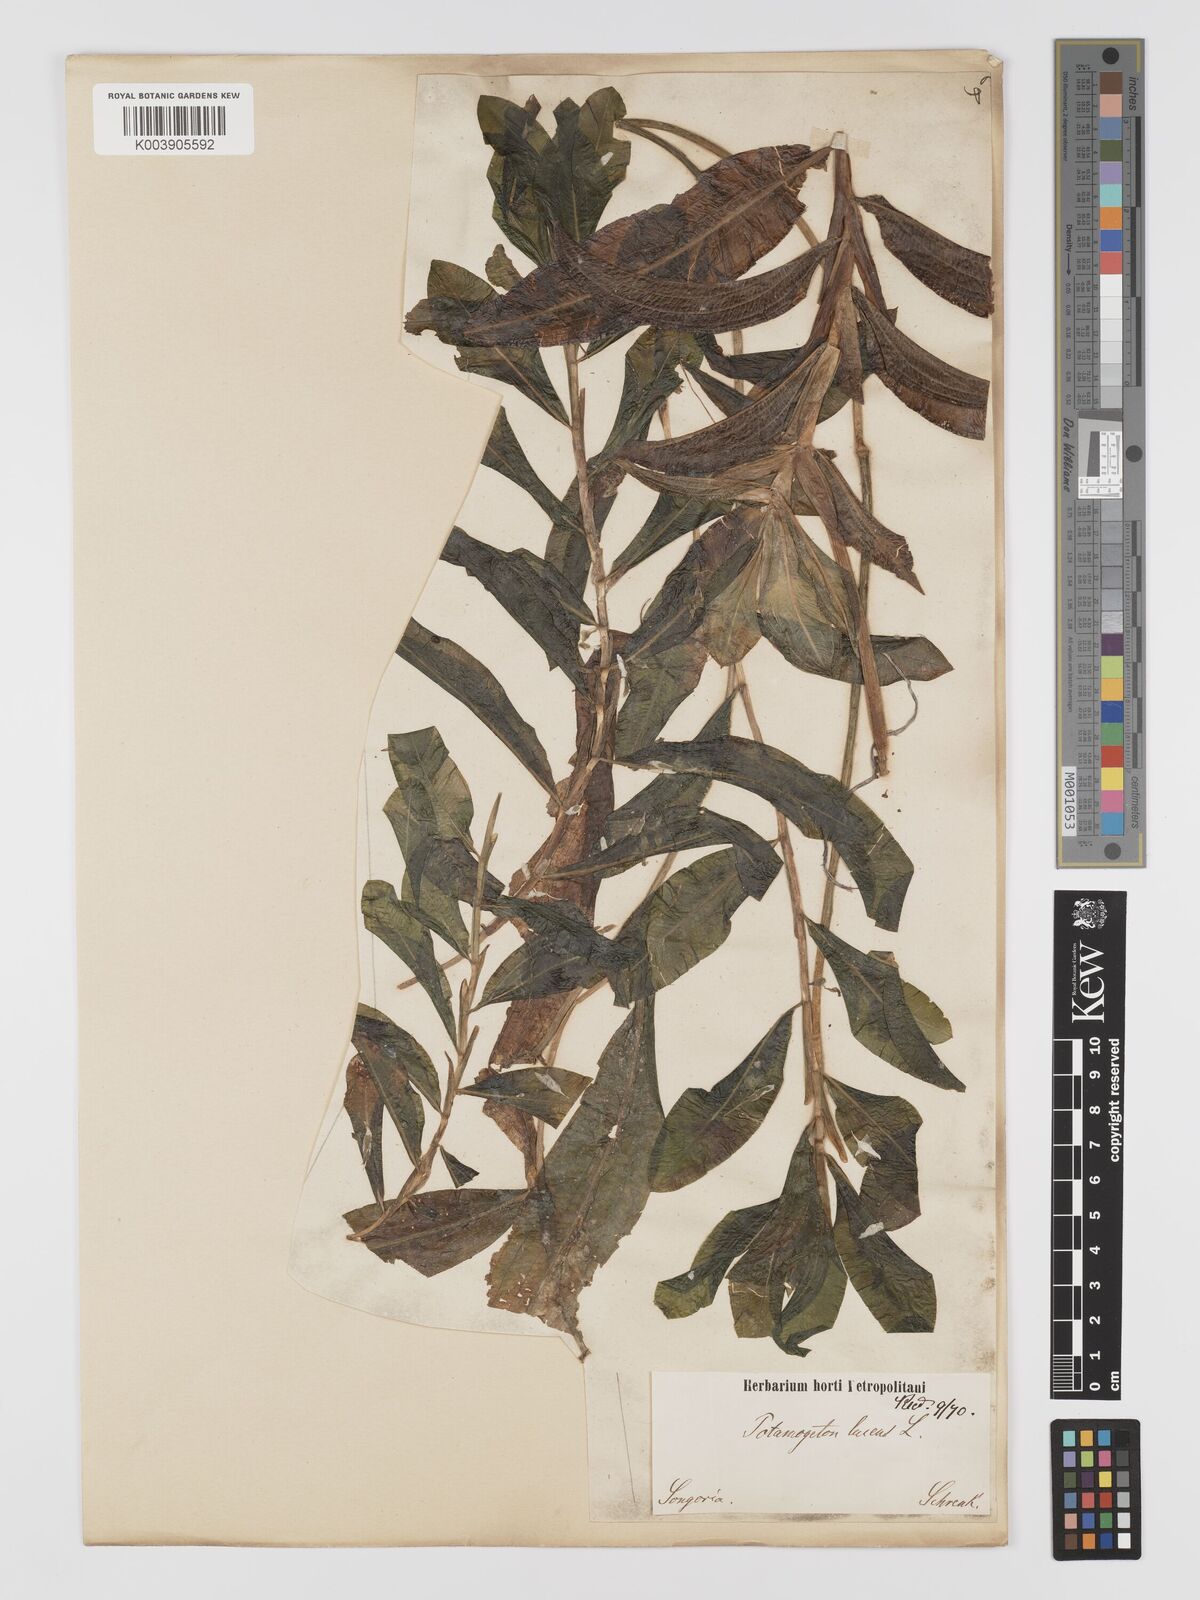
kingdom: Plantae
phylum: Tracheophyta
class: Liliopsida
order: Alismatales
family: Potamogetonaceae
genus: Potamogeton
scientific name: Potamogeton lucens
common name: Shining pondweed
